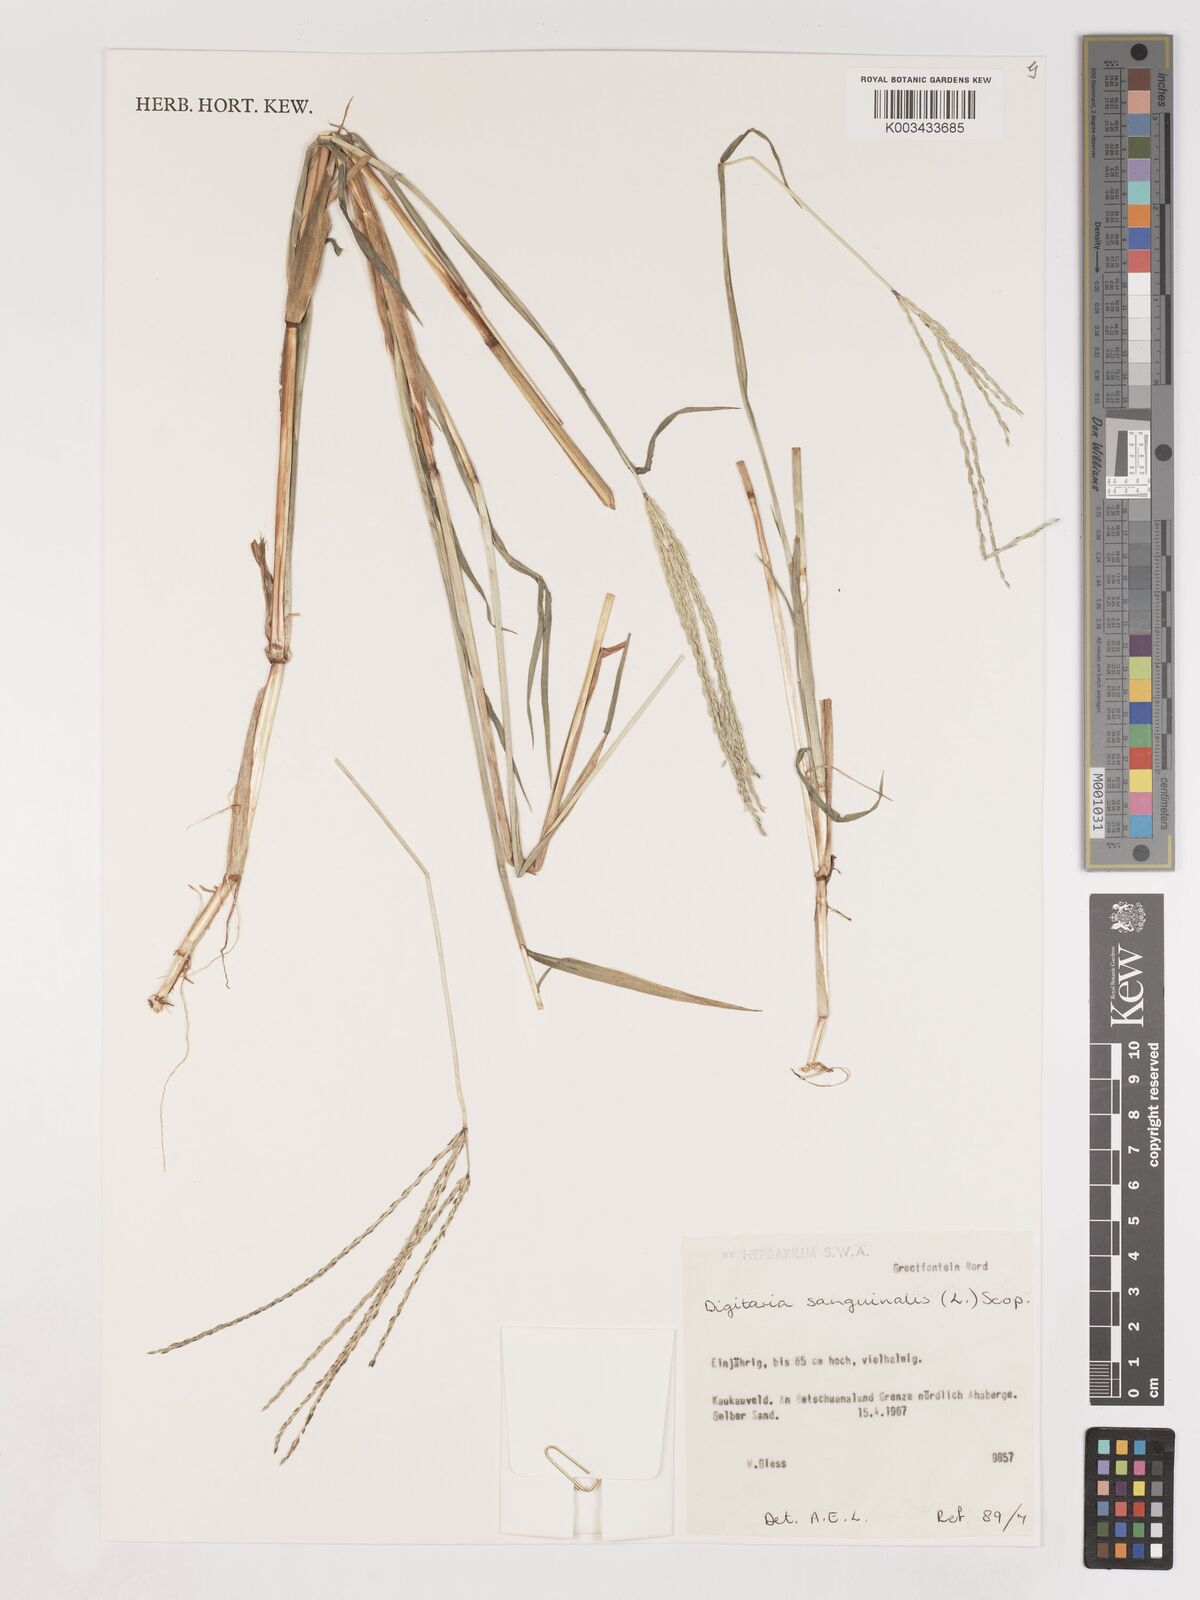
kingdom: Plantae
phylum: Tracheophyta
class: Liliopsida
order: Poales
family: Poaceae
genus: Digitaria
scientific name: Digitaria sanguinalis
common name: Hairy crabgrass
